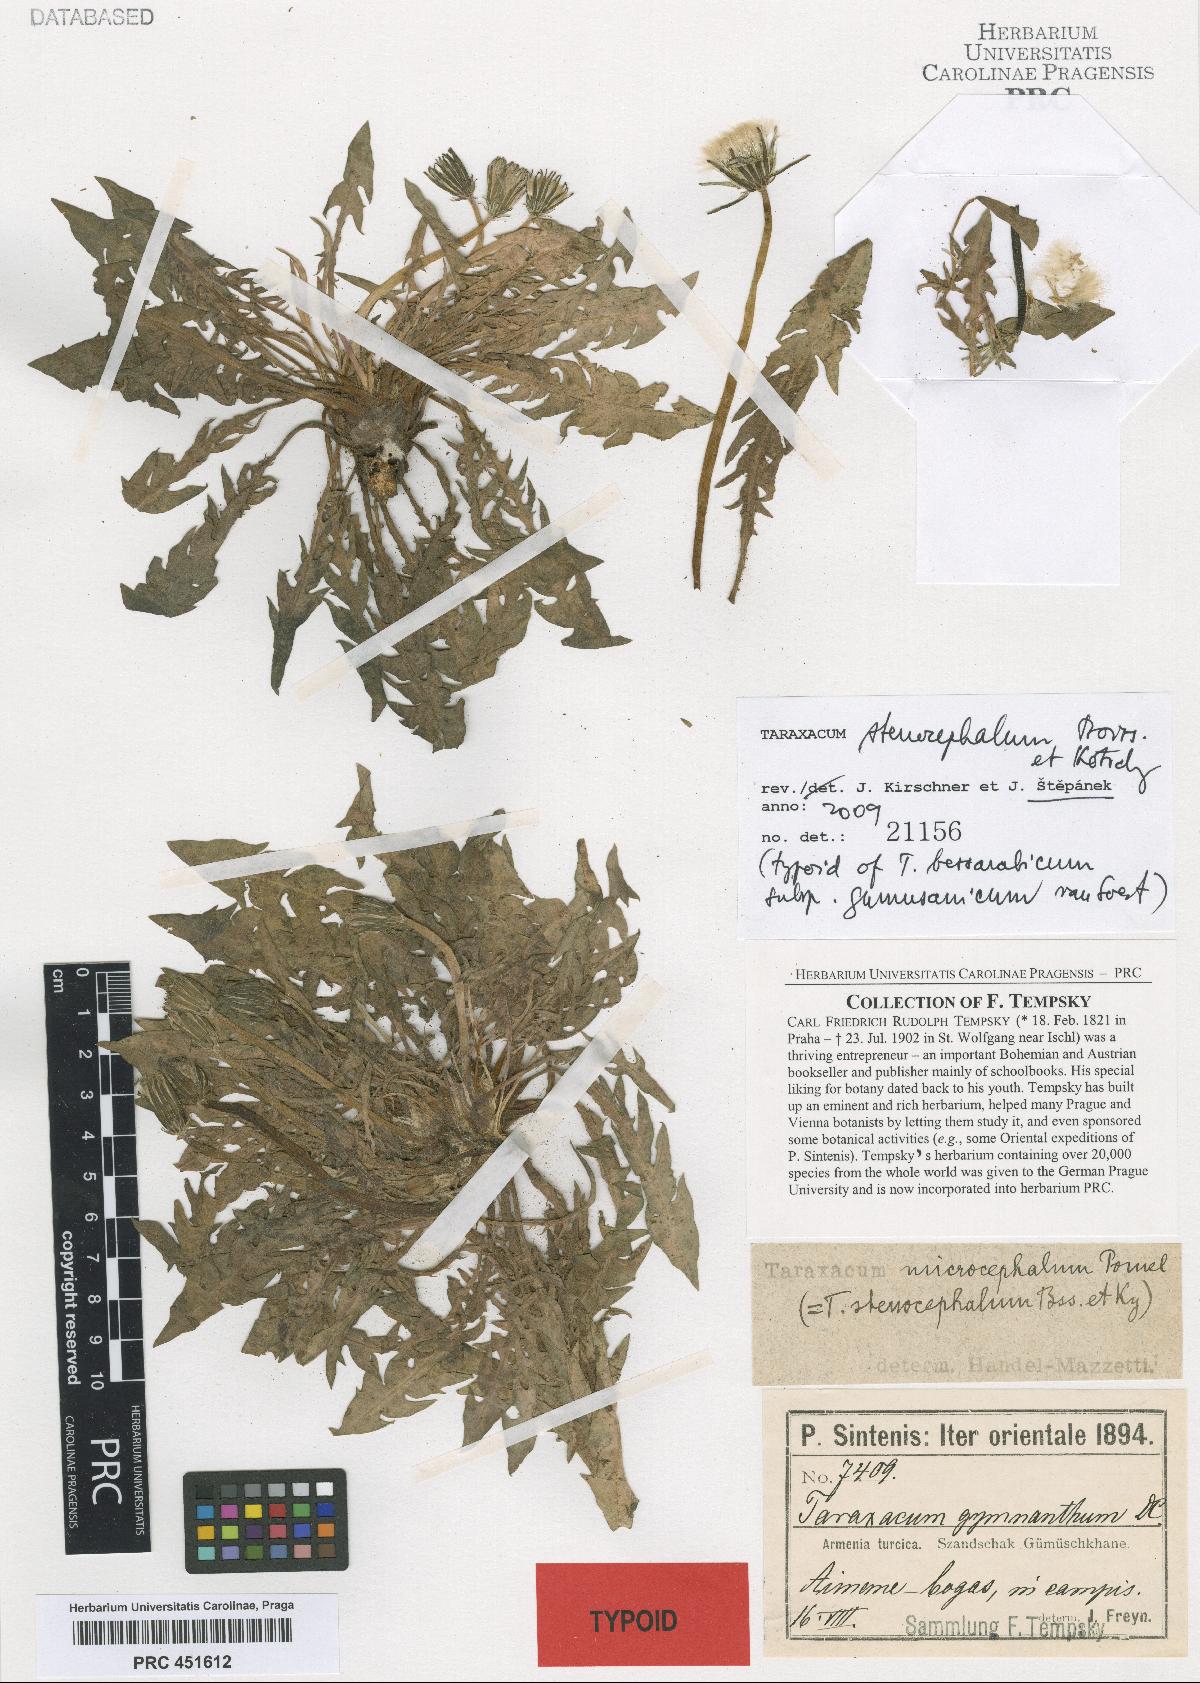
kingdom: Plantae
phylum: Tracheophyta
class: Magnoliopsida
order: Asterales
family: Asteraceae
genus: Taraxacum
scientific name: Taraxacum stenocephalum
